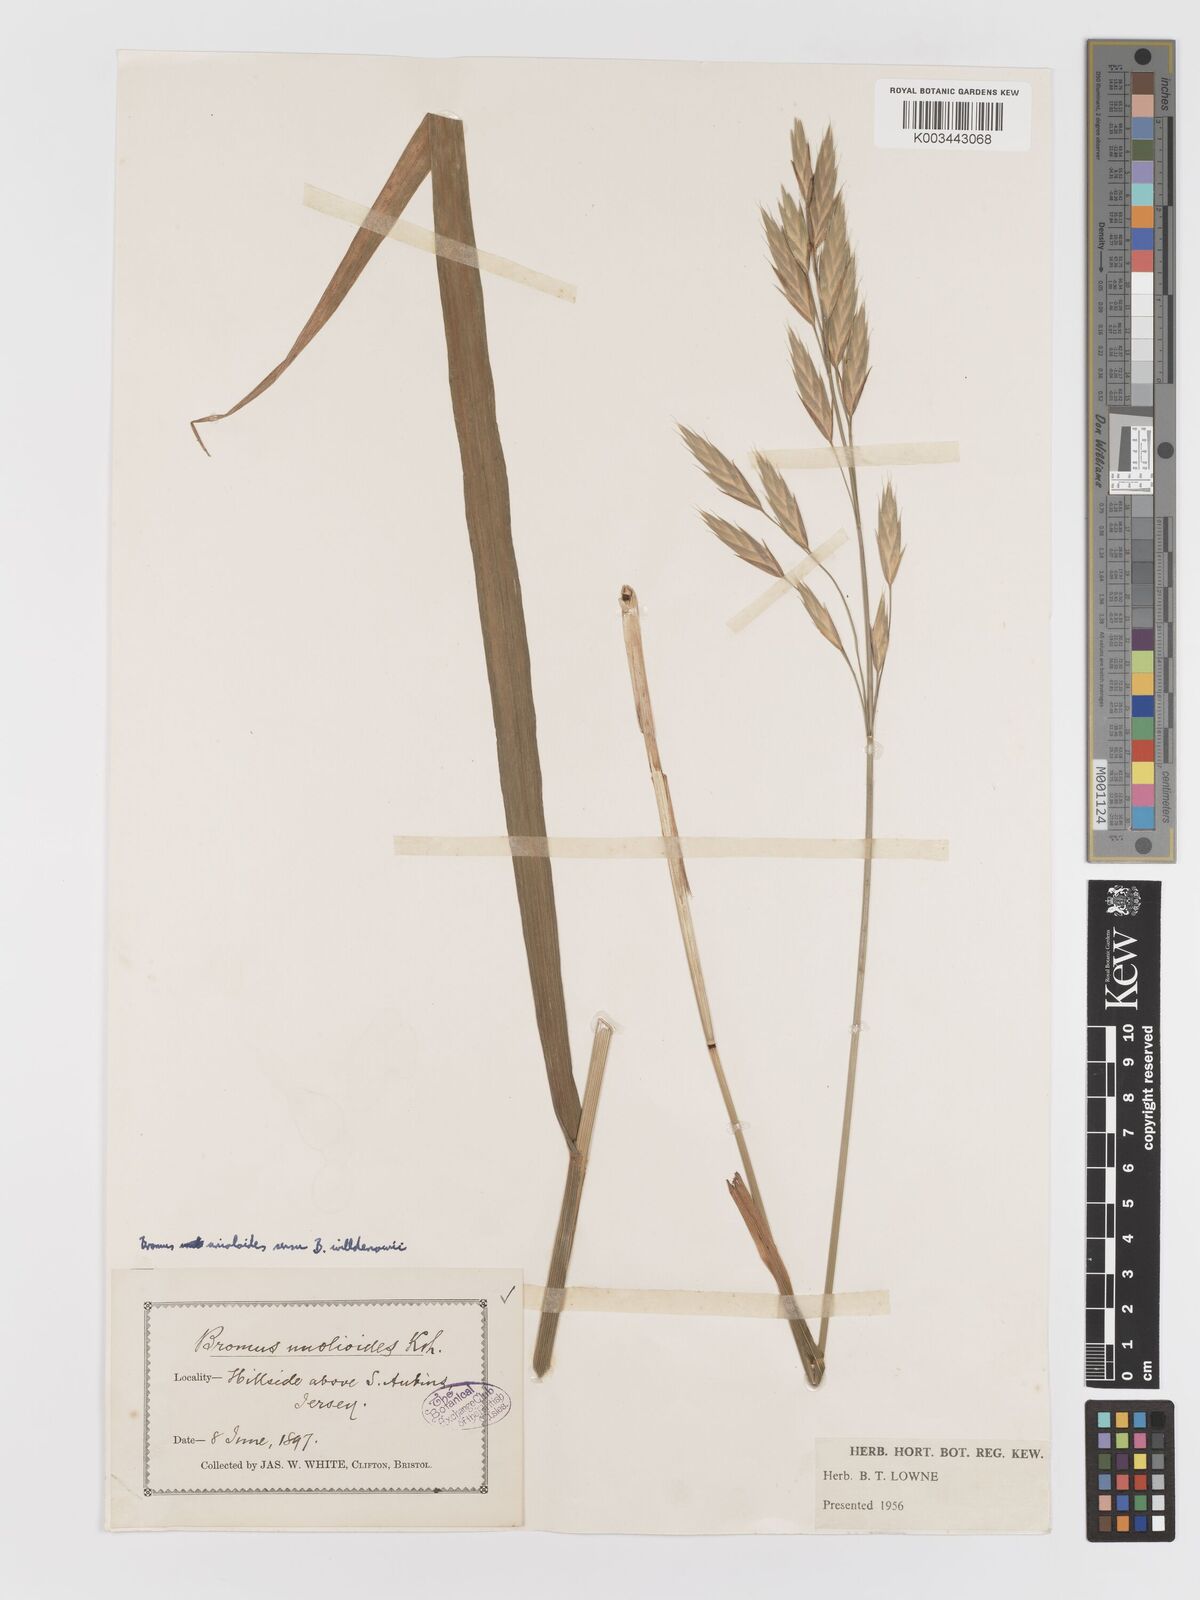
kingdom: Plantae
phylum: Tracheophyta
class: Liliopsida
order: Poales
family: Poaceae
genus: Bromus
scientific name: Bromus catharticus
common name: Rescuegrass
